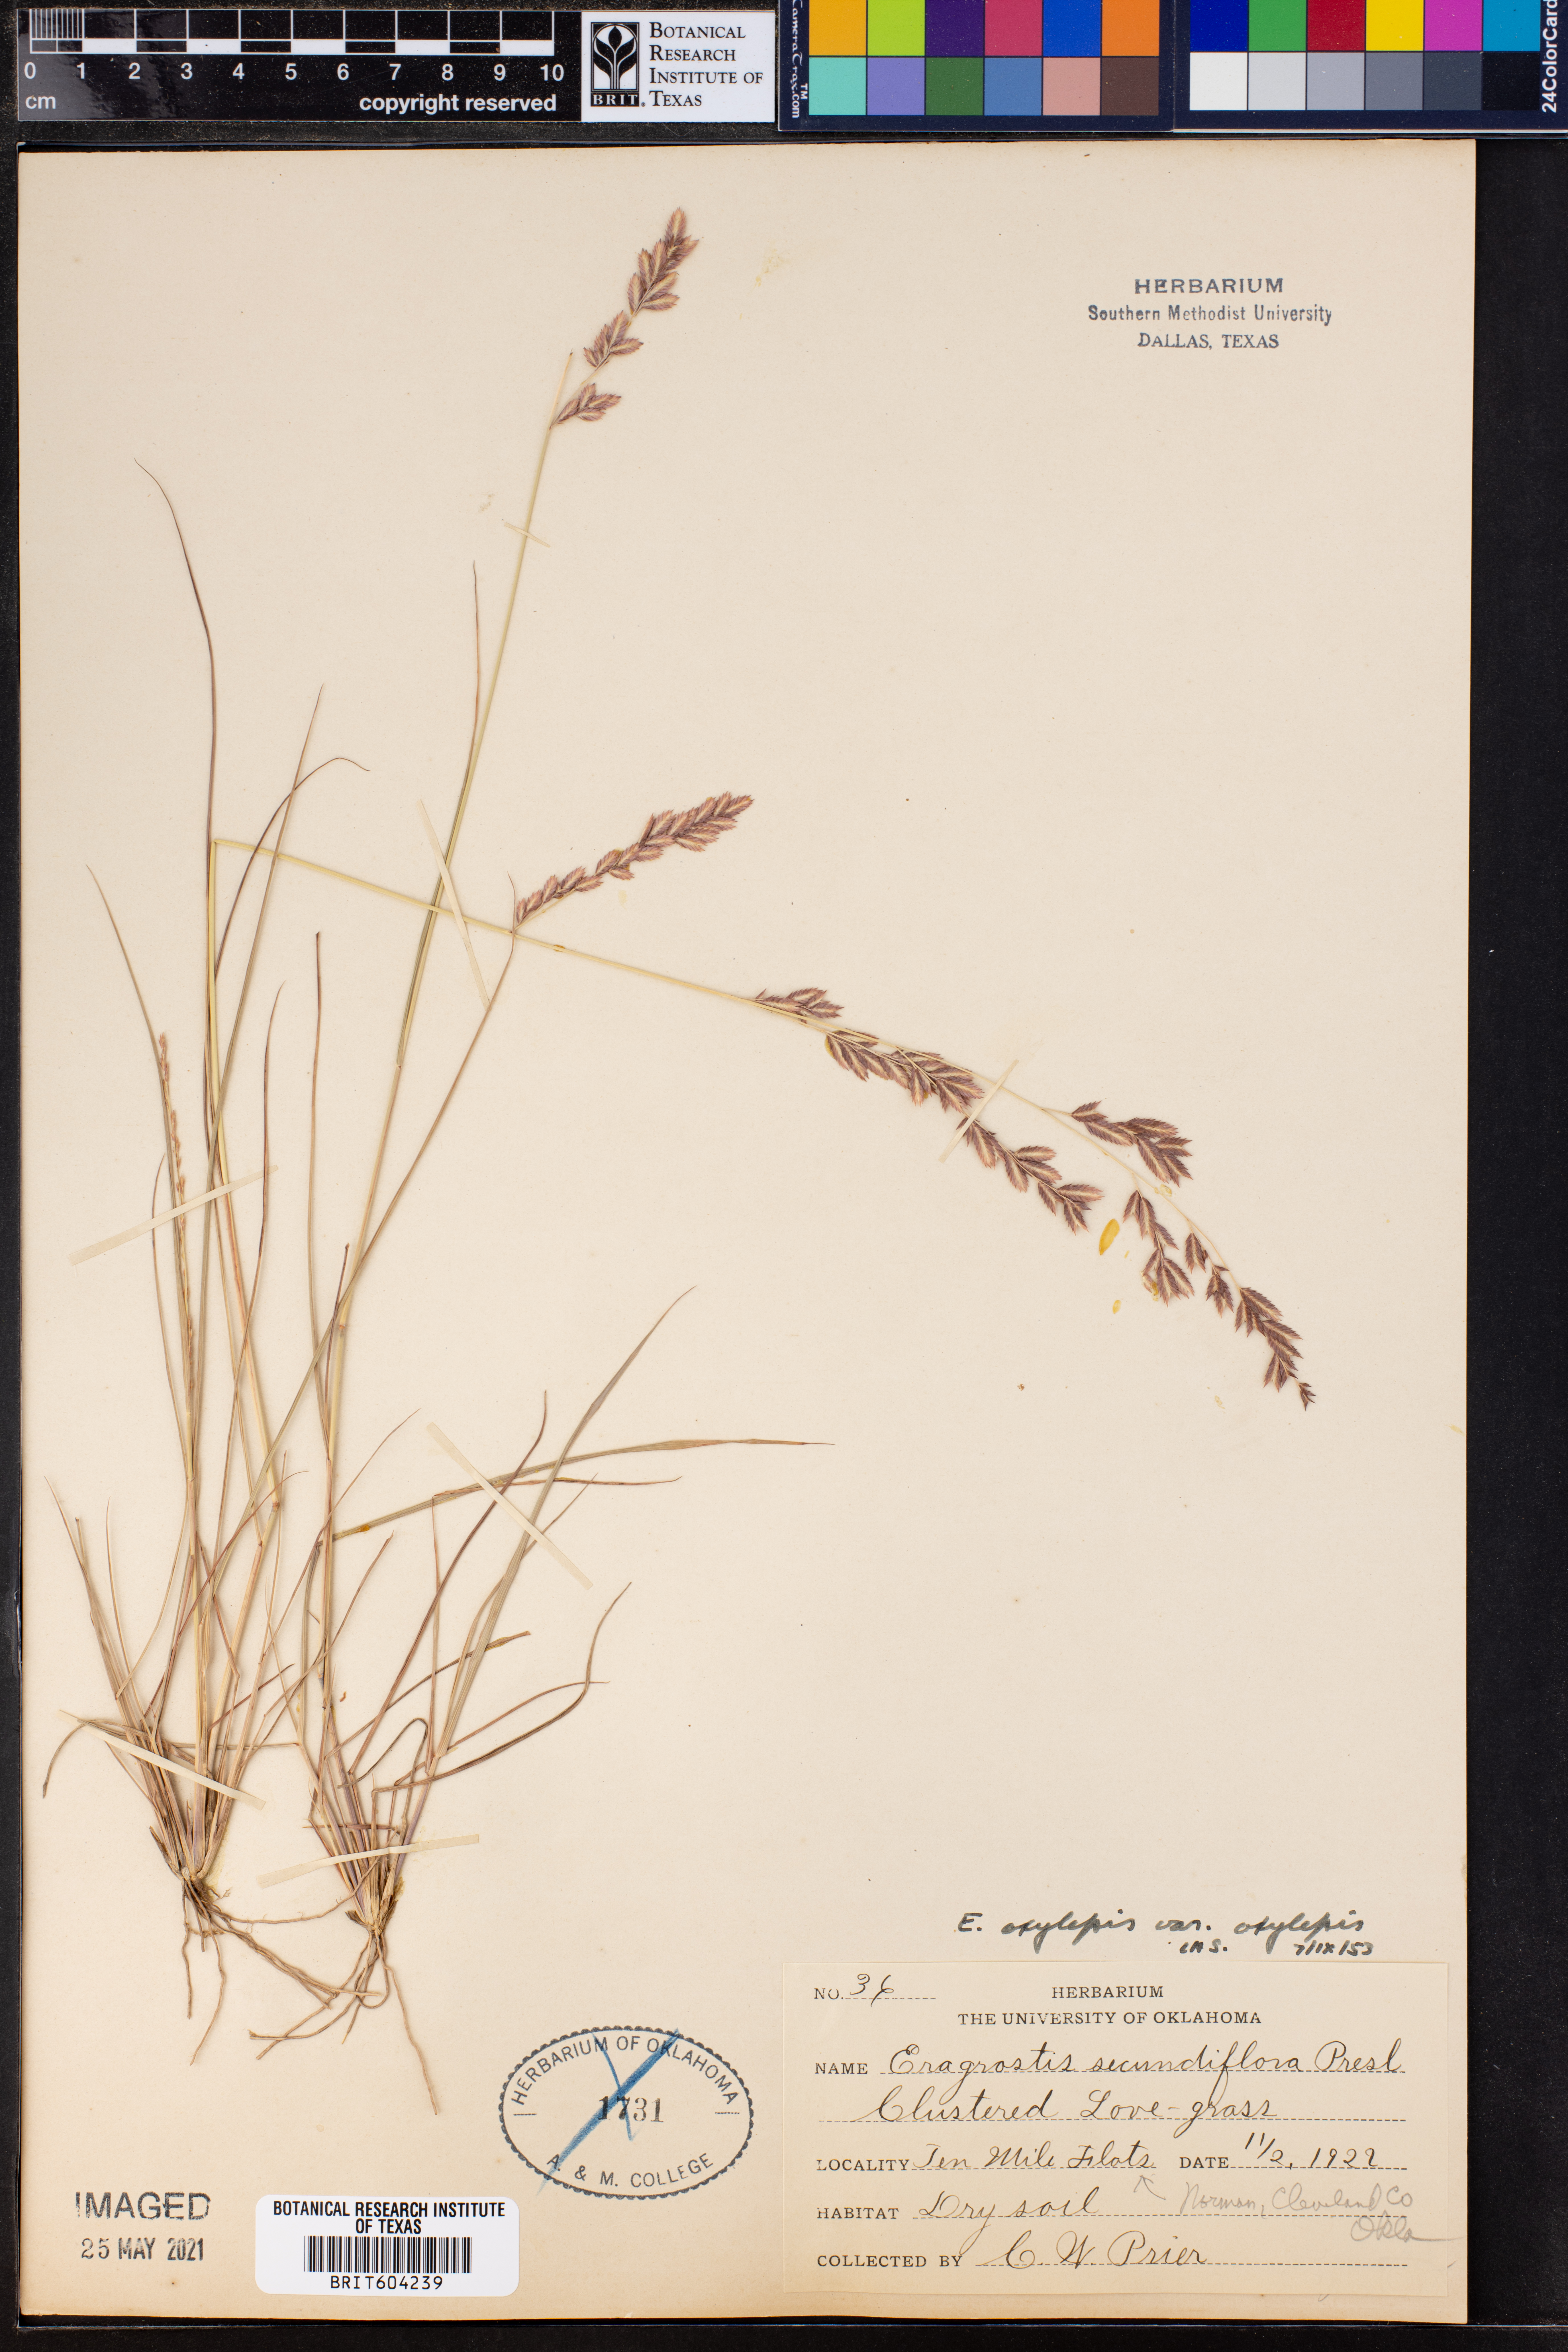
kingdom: Plantae
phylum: Tracheophyta
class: Liliopsida
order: Poales
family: Poaceae
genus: Eragrostis
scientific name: Eragrostis secundiflora
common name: Red love grass
